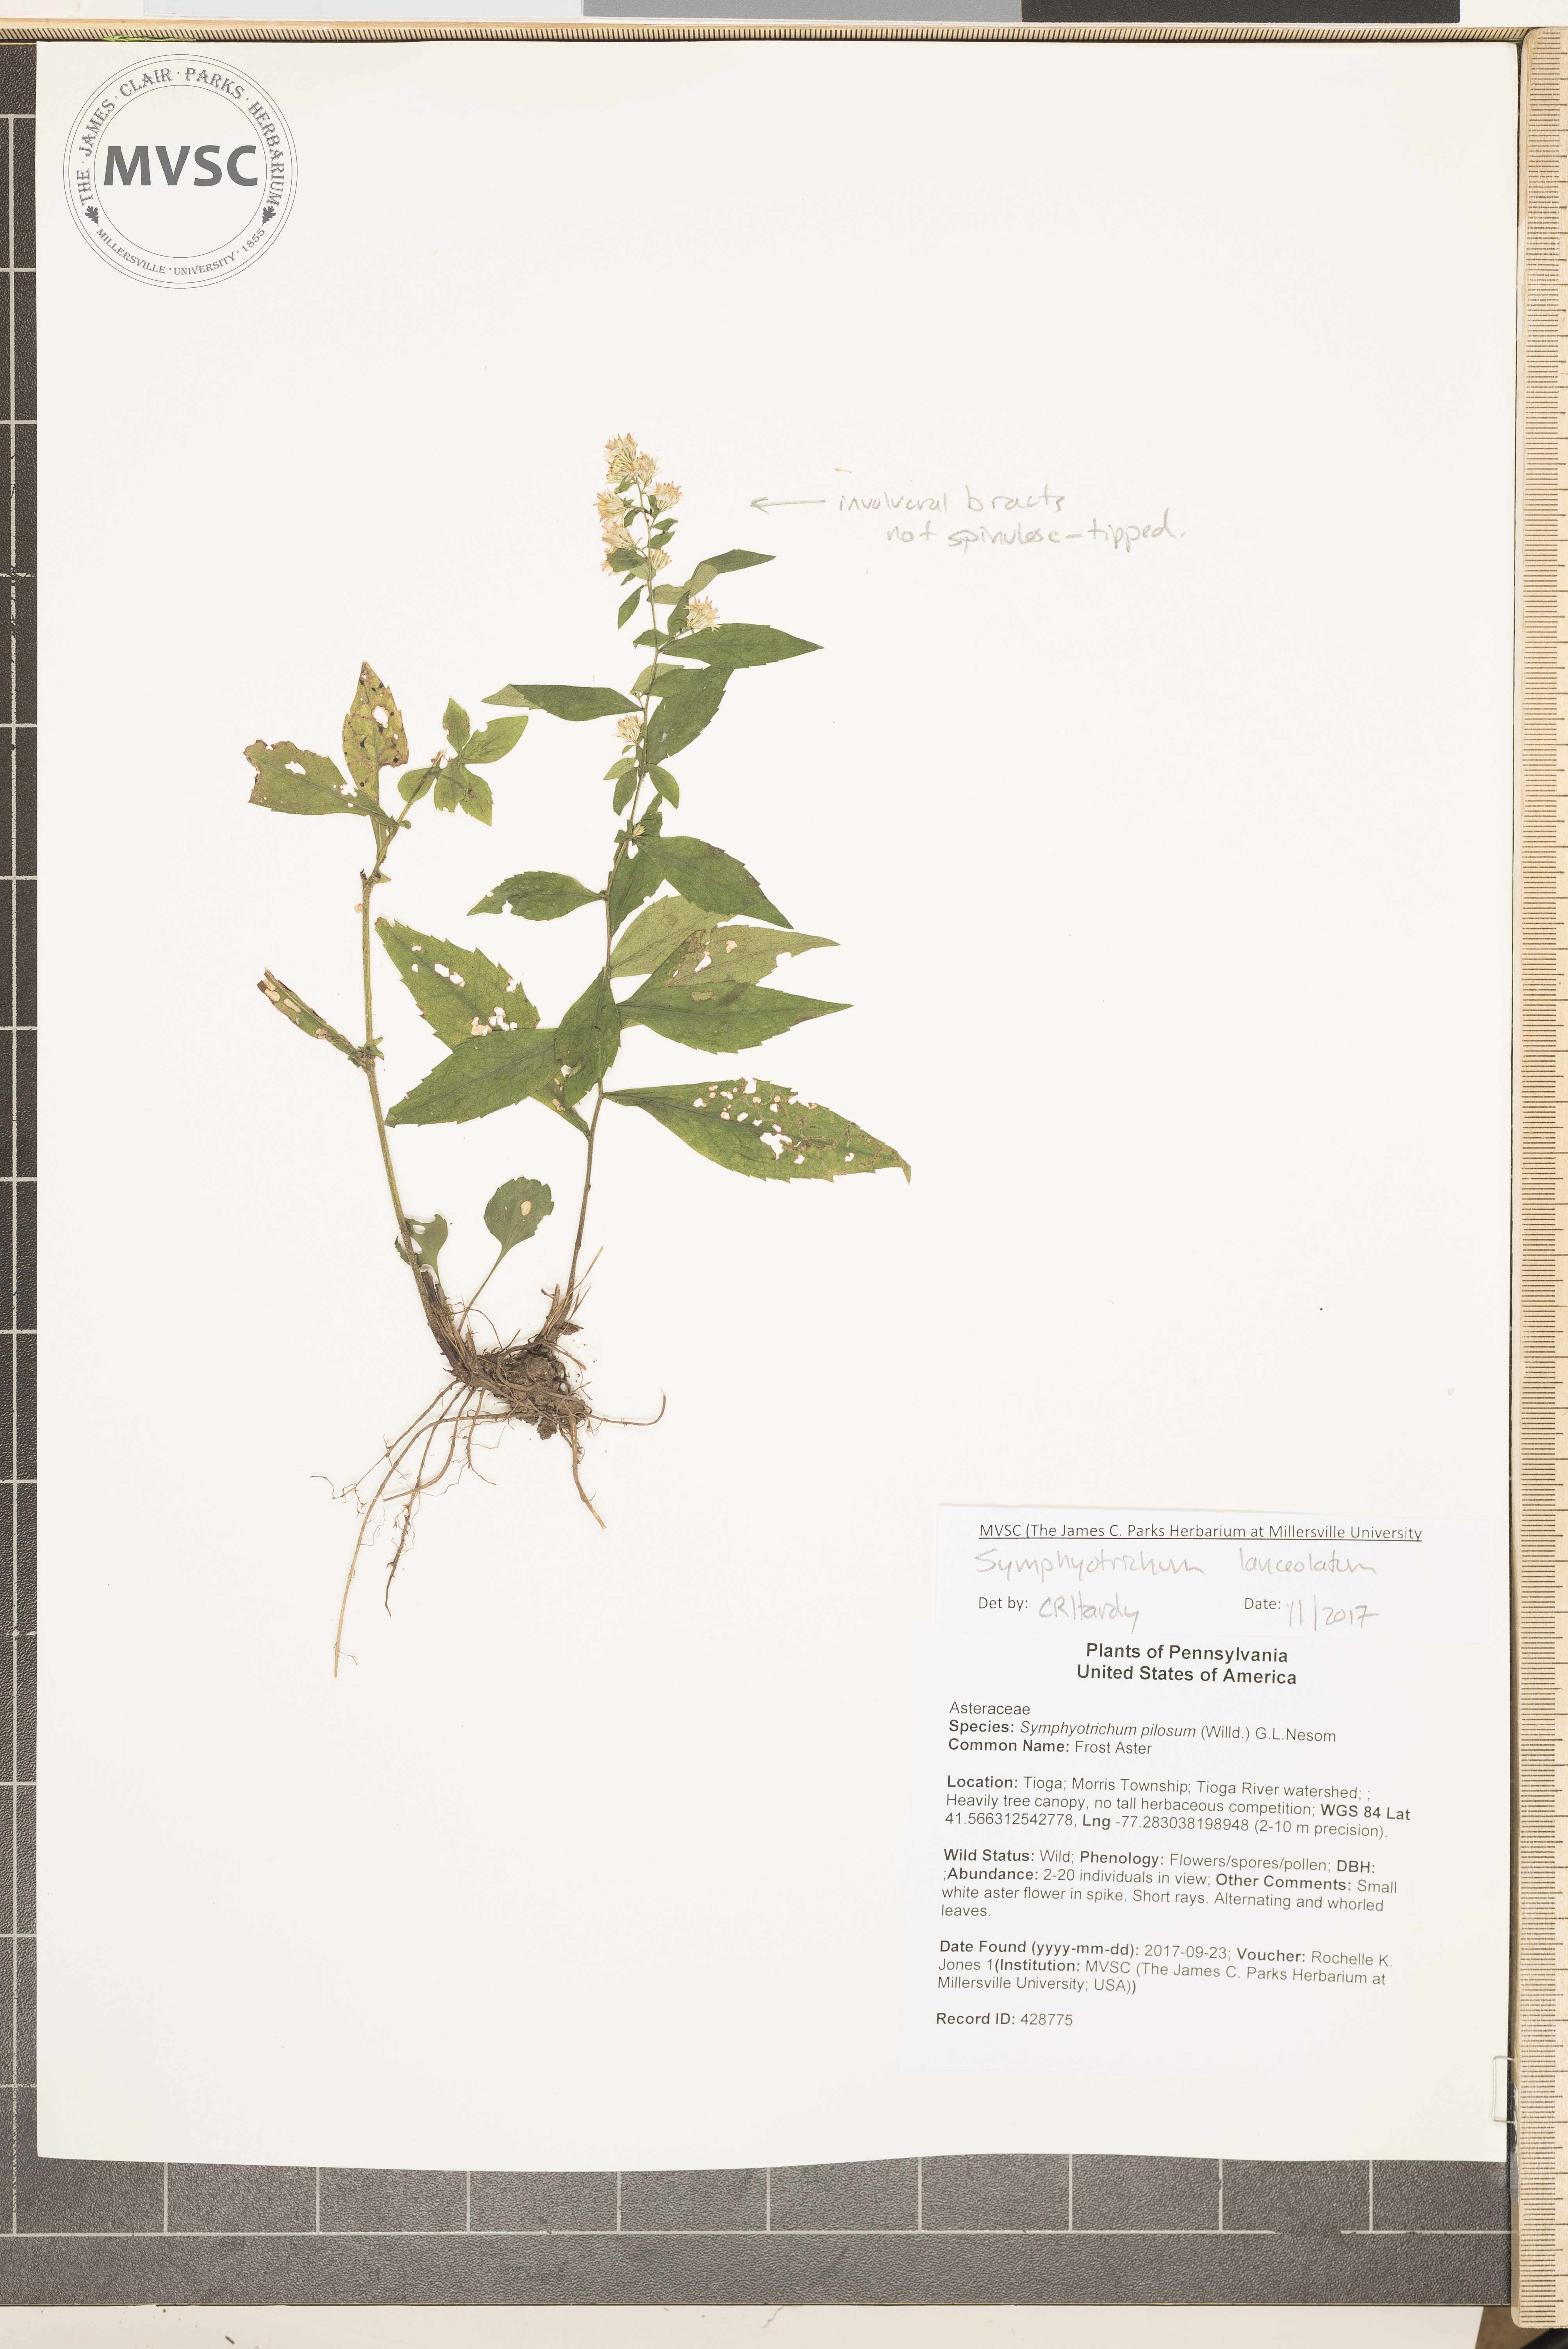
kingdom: Plantae
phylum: Tracheophyta
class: Magnoliopsida
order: Asterales
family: Asteraceae
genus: Symphyotrichum
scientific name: Symphyotrichum lanceolatum
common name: Aster
